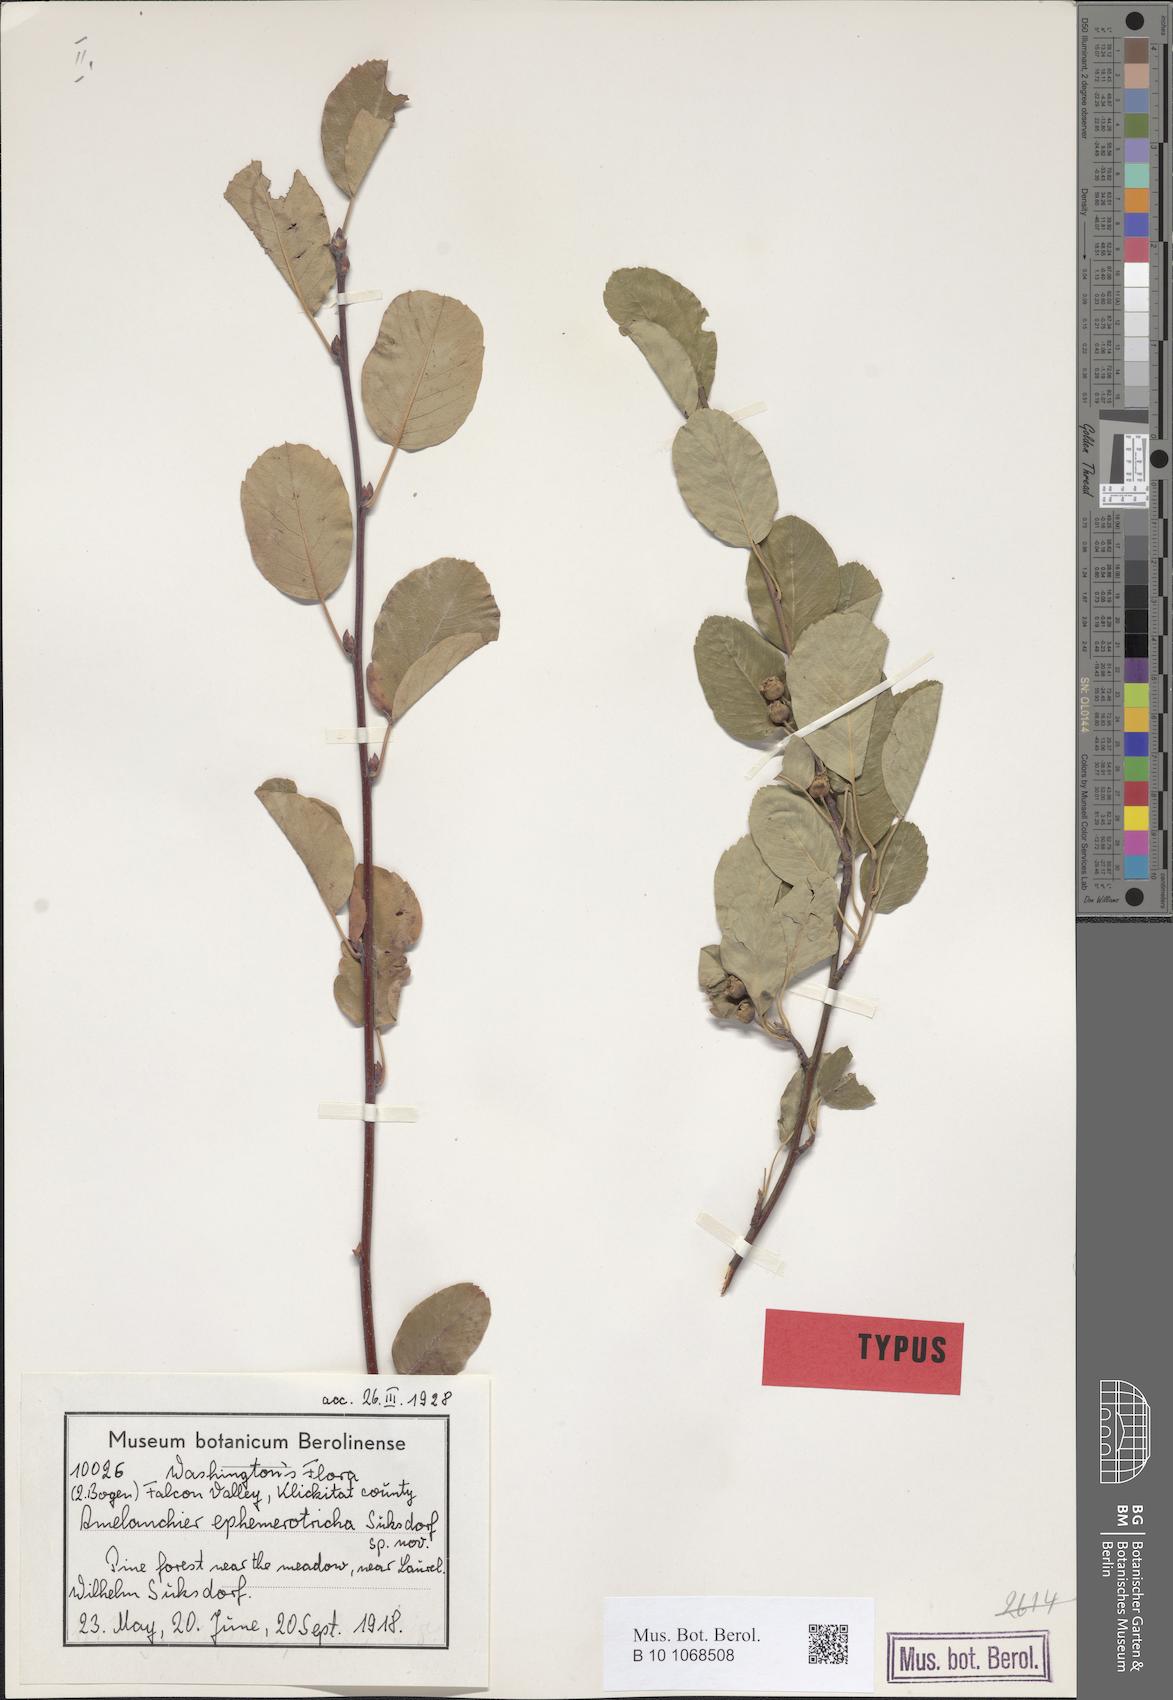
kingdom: Plantae
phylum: Tracheophyta
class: Magnoliopsida
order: Rosales
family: Rosaceae
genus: Amelanchier
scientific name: Amelanchier alnifolia
